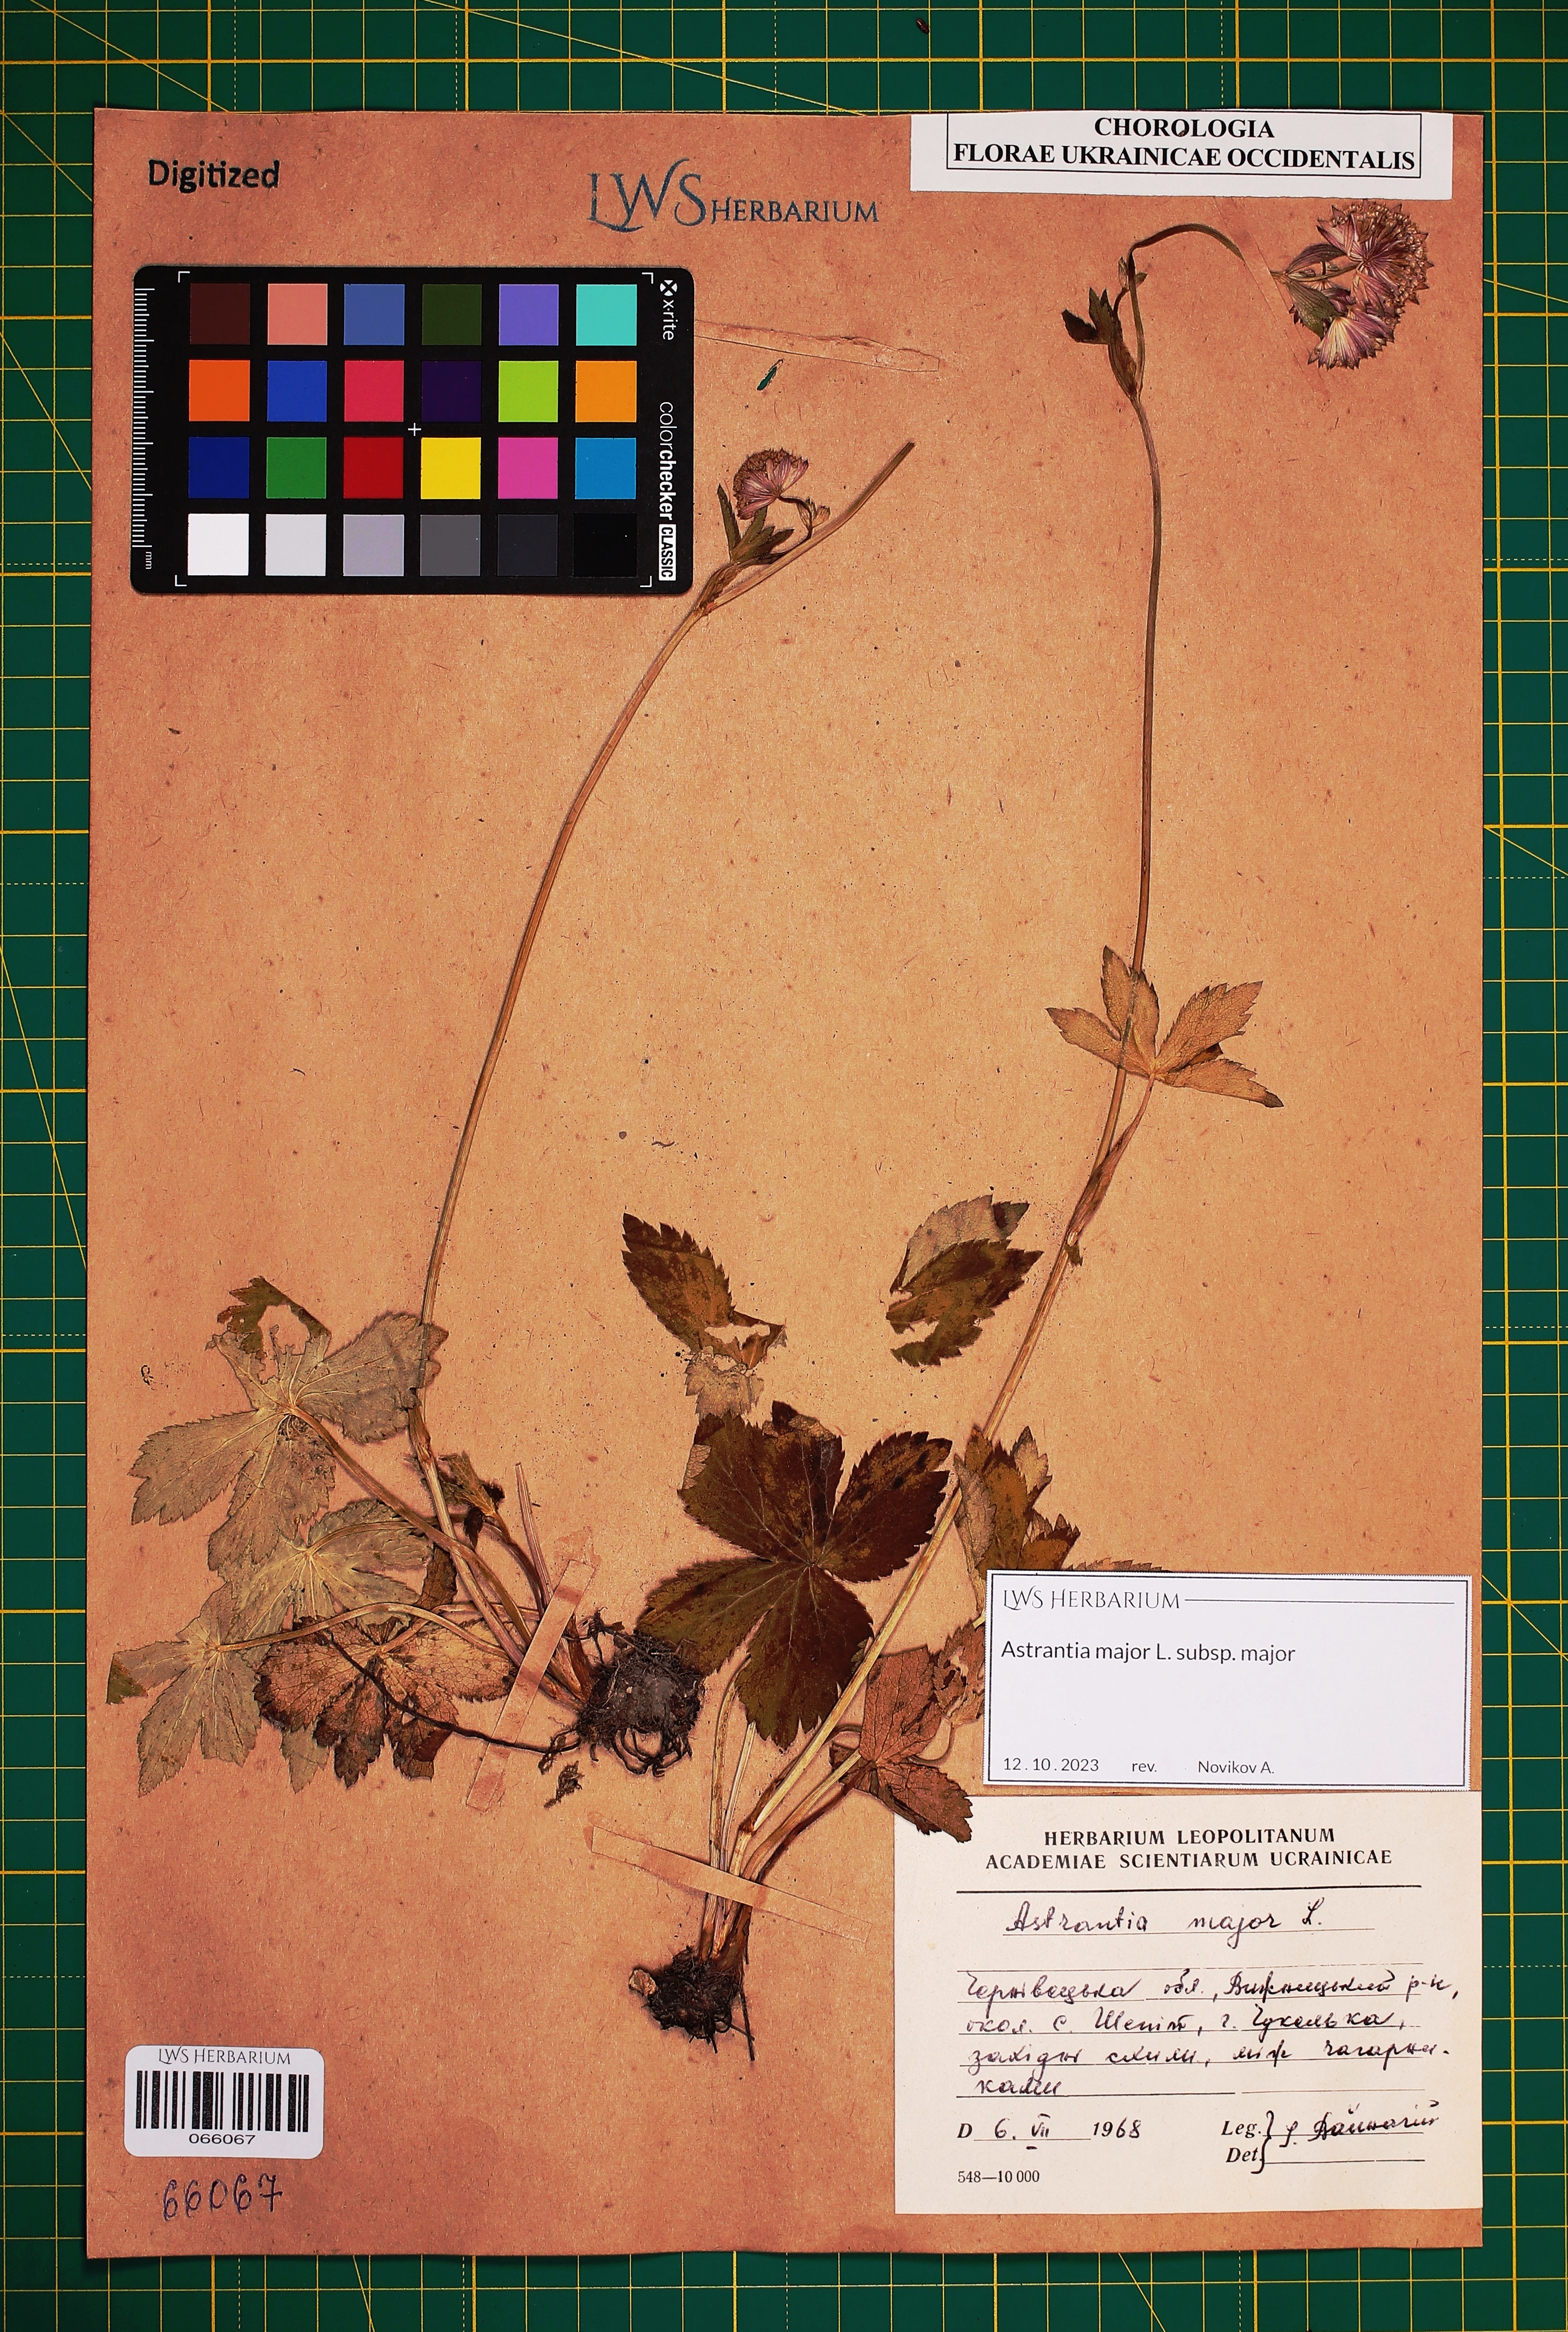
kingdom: Plantae
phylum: Tracheophyta
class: Magnoliopsida
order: Apiales
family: Apiaceae
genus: Astrantia
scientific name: Astrantia major
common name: Greater masterwort
